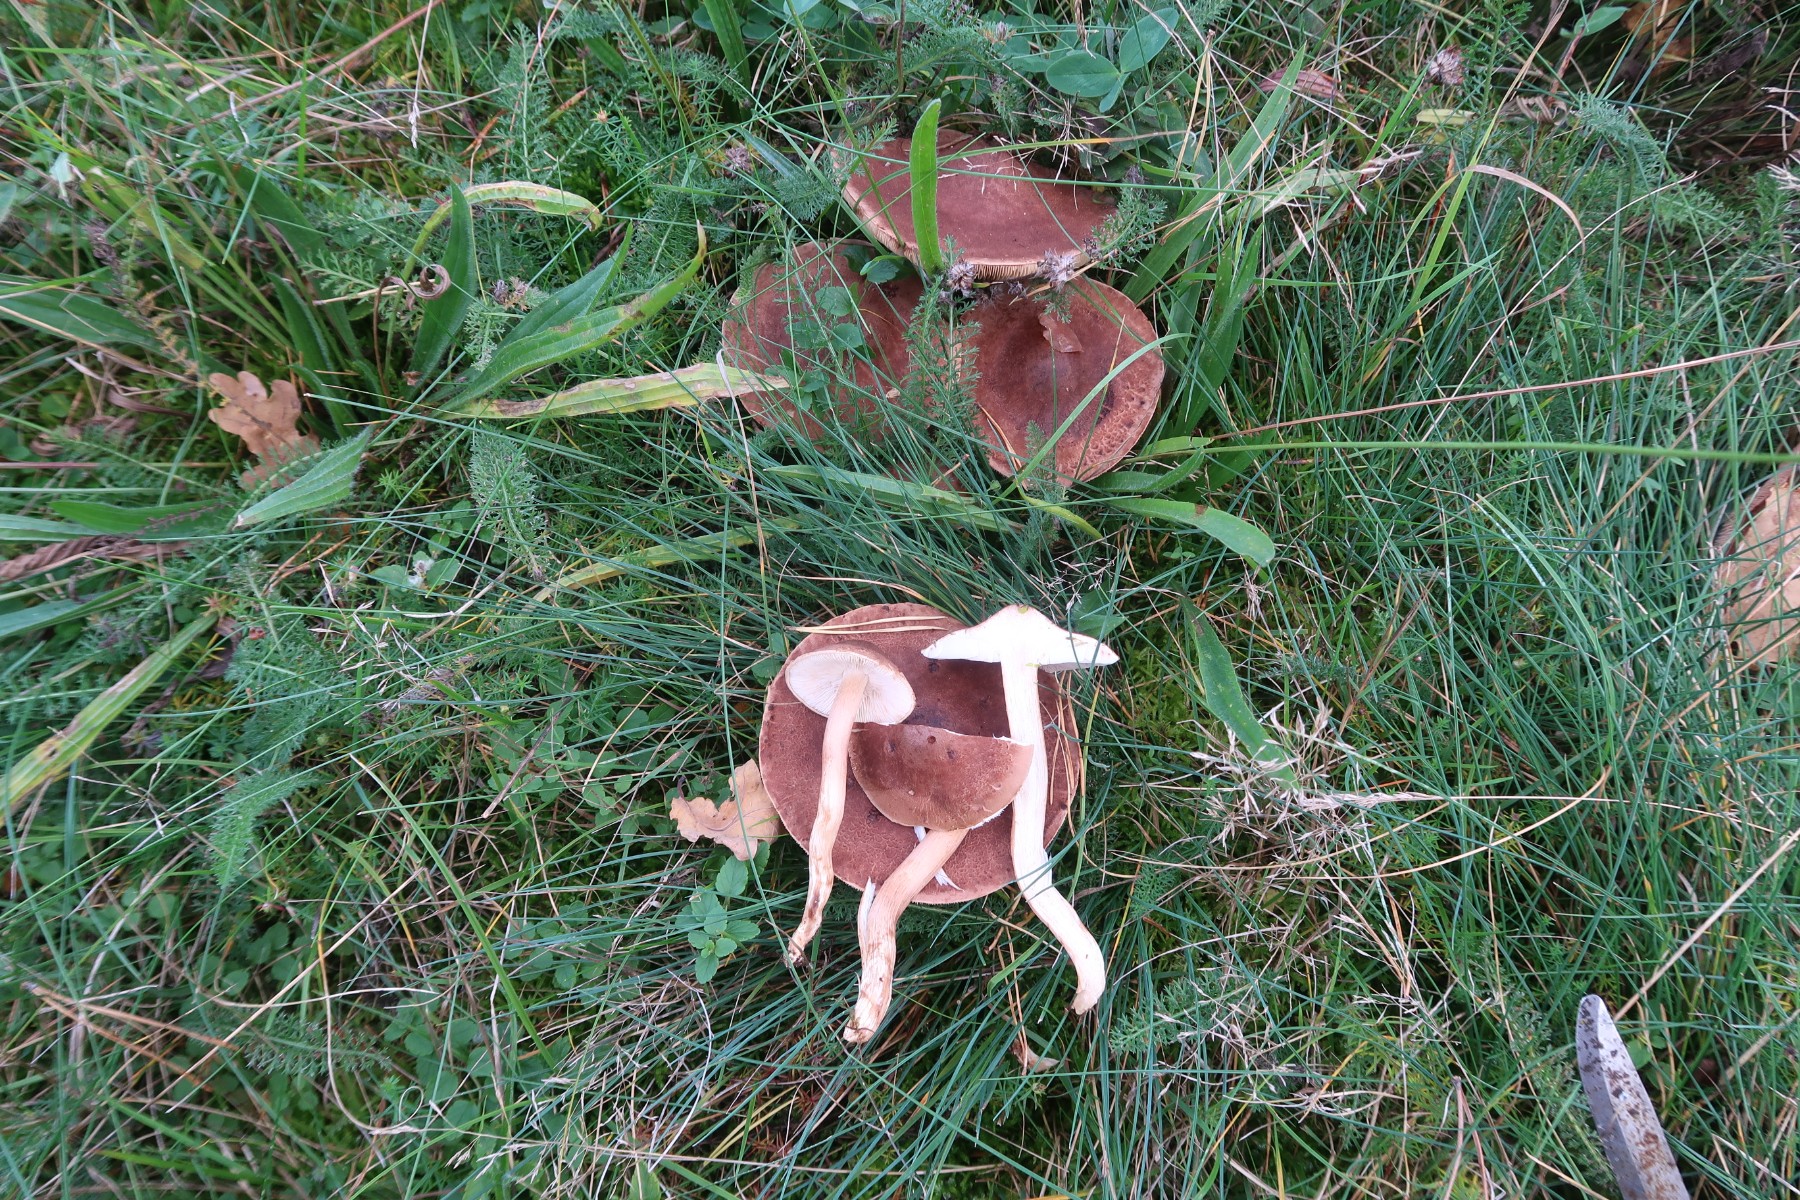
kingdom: Fungi
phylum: Basidiomycota
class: Agaricomycetes
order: Agaricales
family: Tricholomataceae
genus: Tricholoma
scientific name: Tricholoma imbricatum
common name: skællet ridderhat
